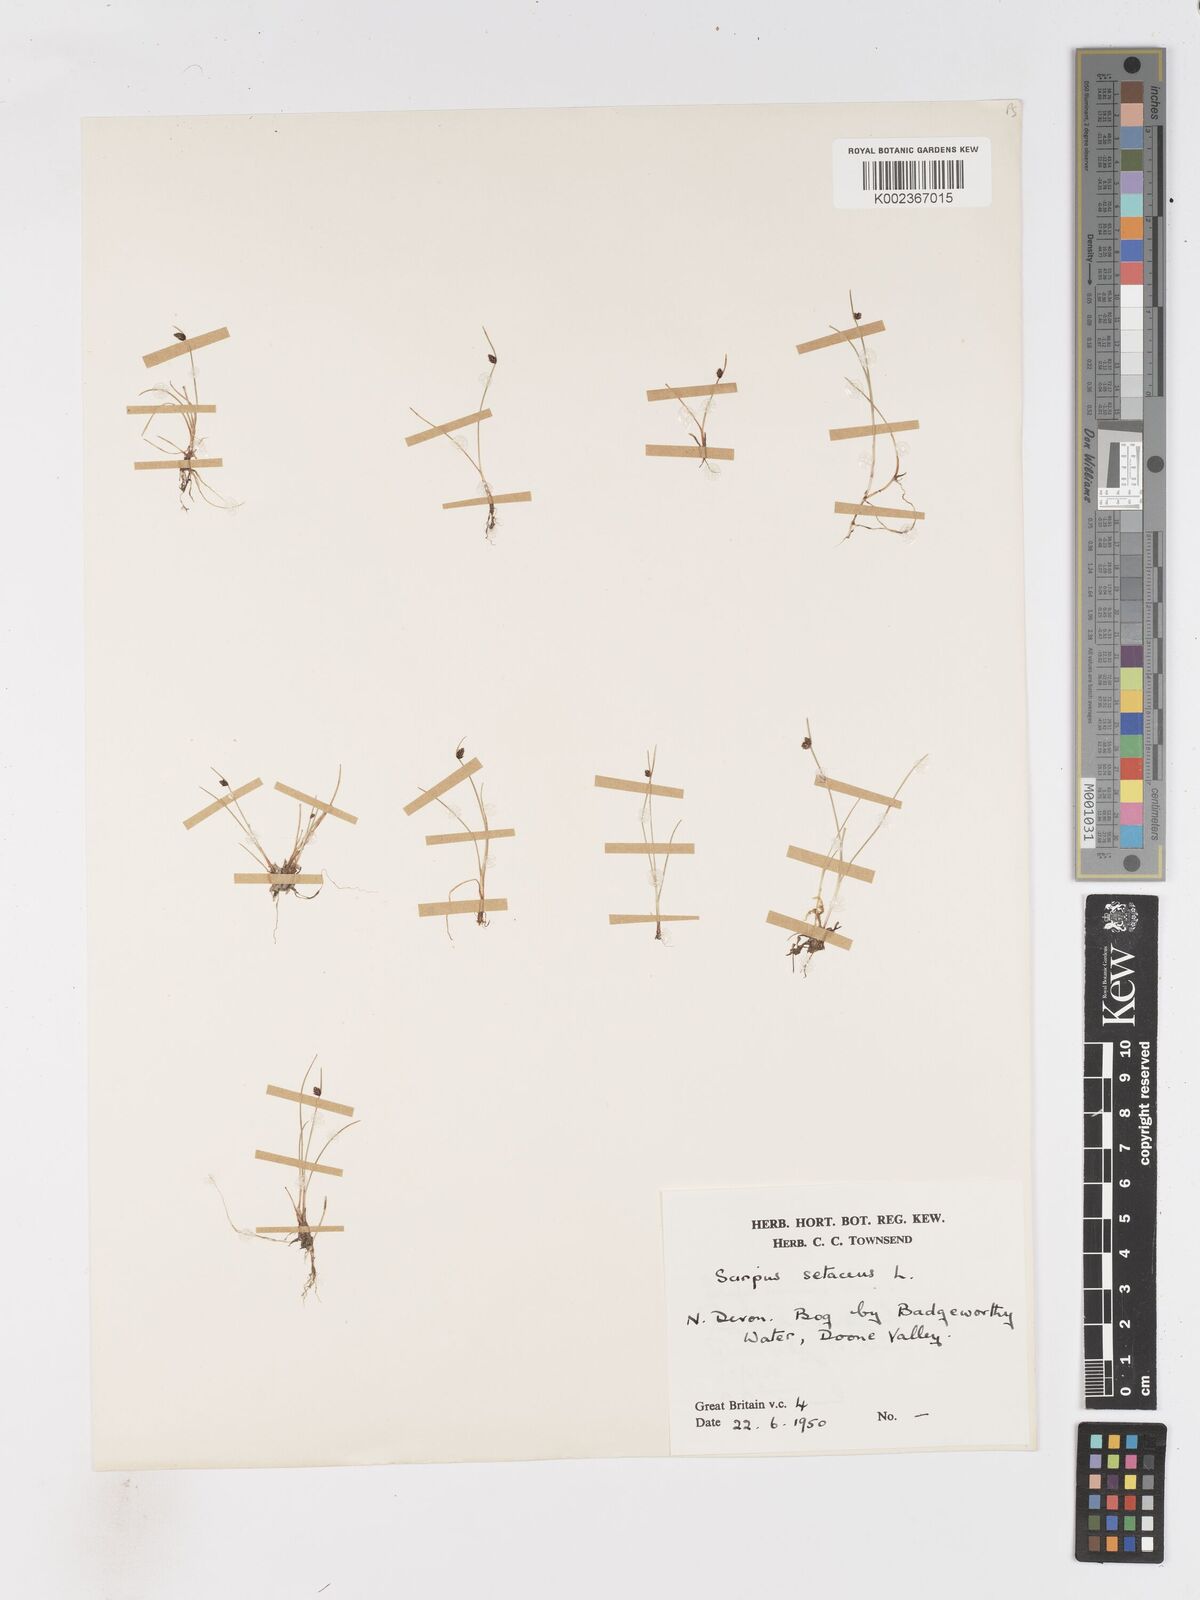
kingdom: Plantae
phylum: Tracheophyta
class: Liliopsida
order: Poales
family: Cyperaceae
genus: Isolepis
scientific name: Isolepis setacea
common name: Bristle club-rush
